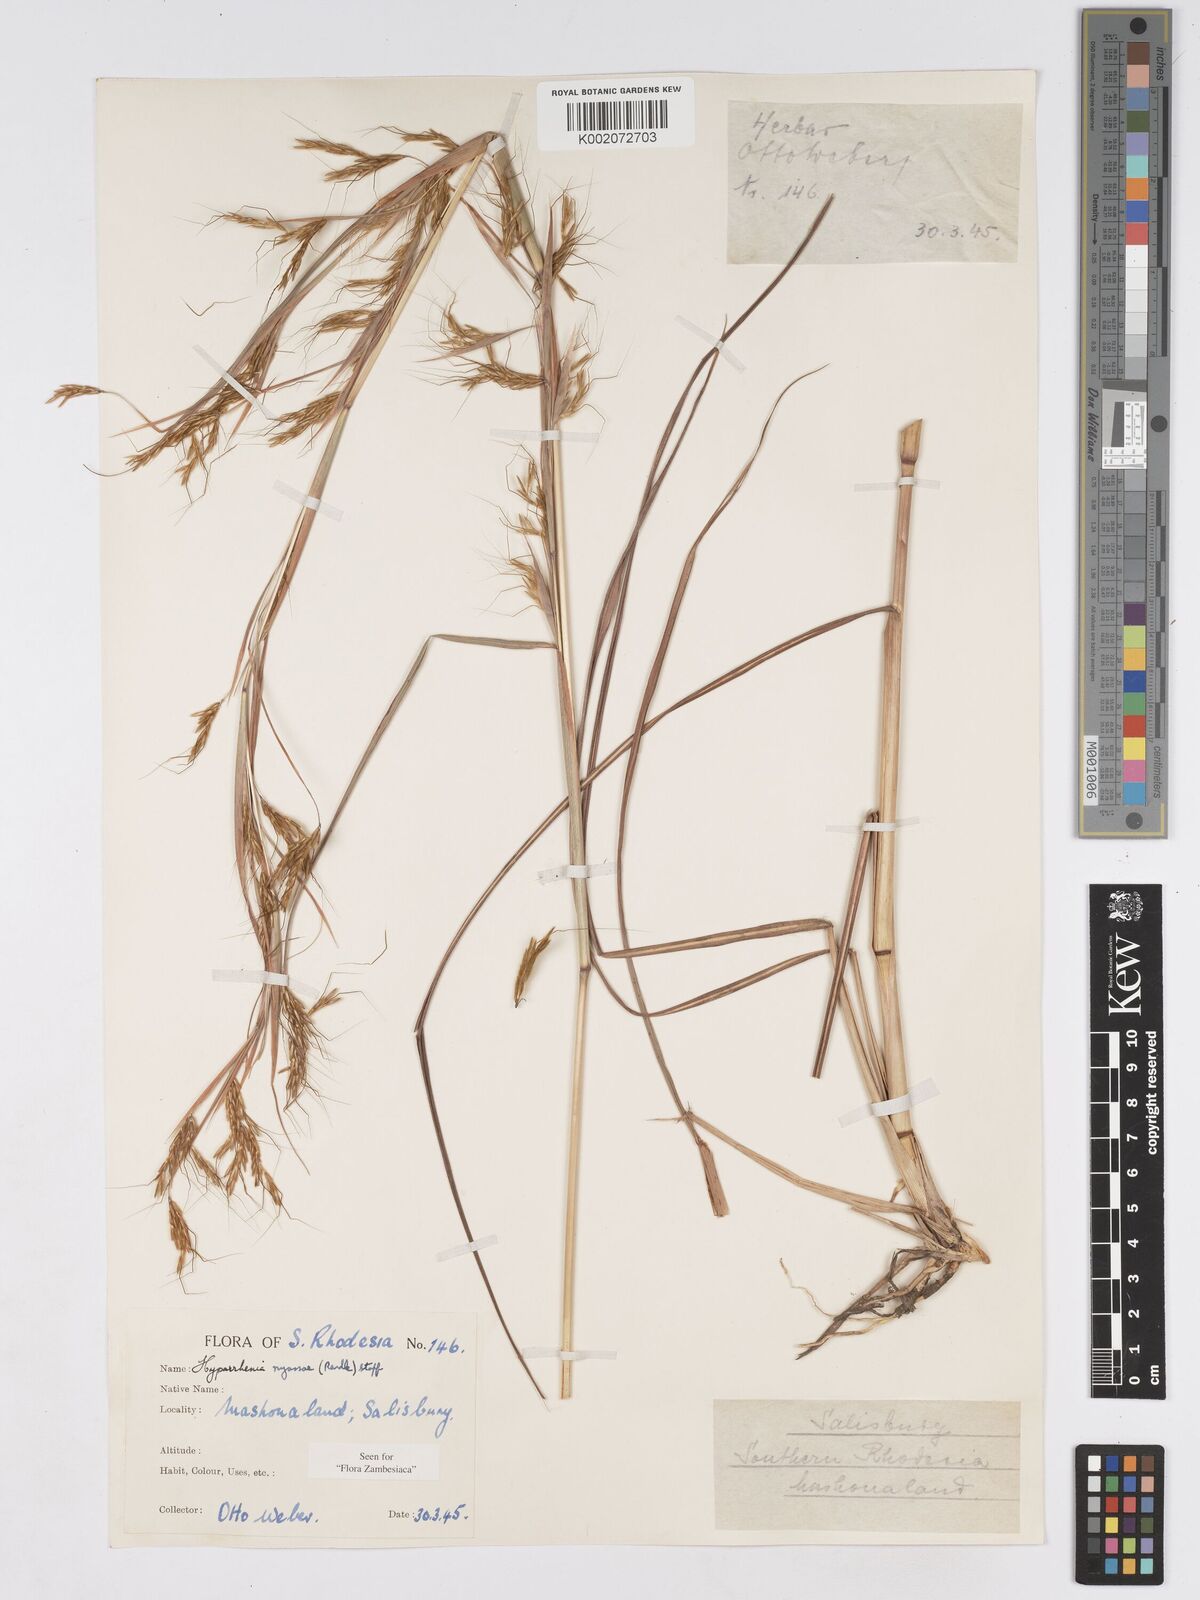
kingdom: Plantae
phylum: Tracheophyta
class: Liliopsida
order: Poales
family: Poaceae
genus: Hyparrhenia
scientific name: Hyparrhenia nyassae
